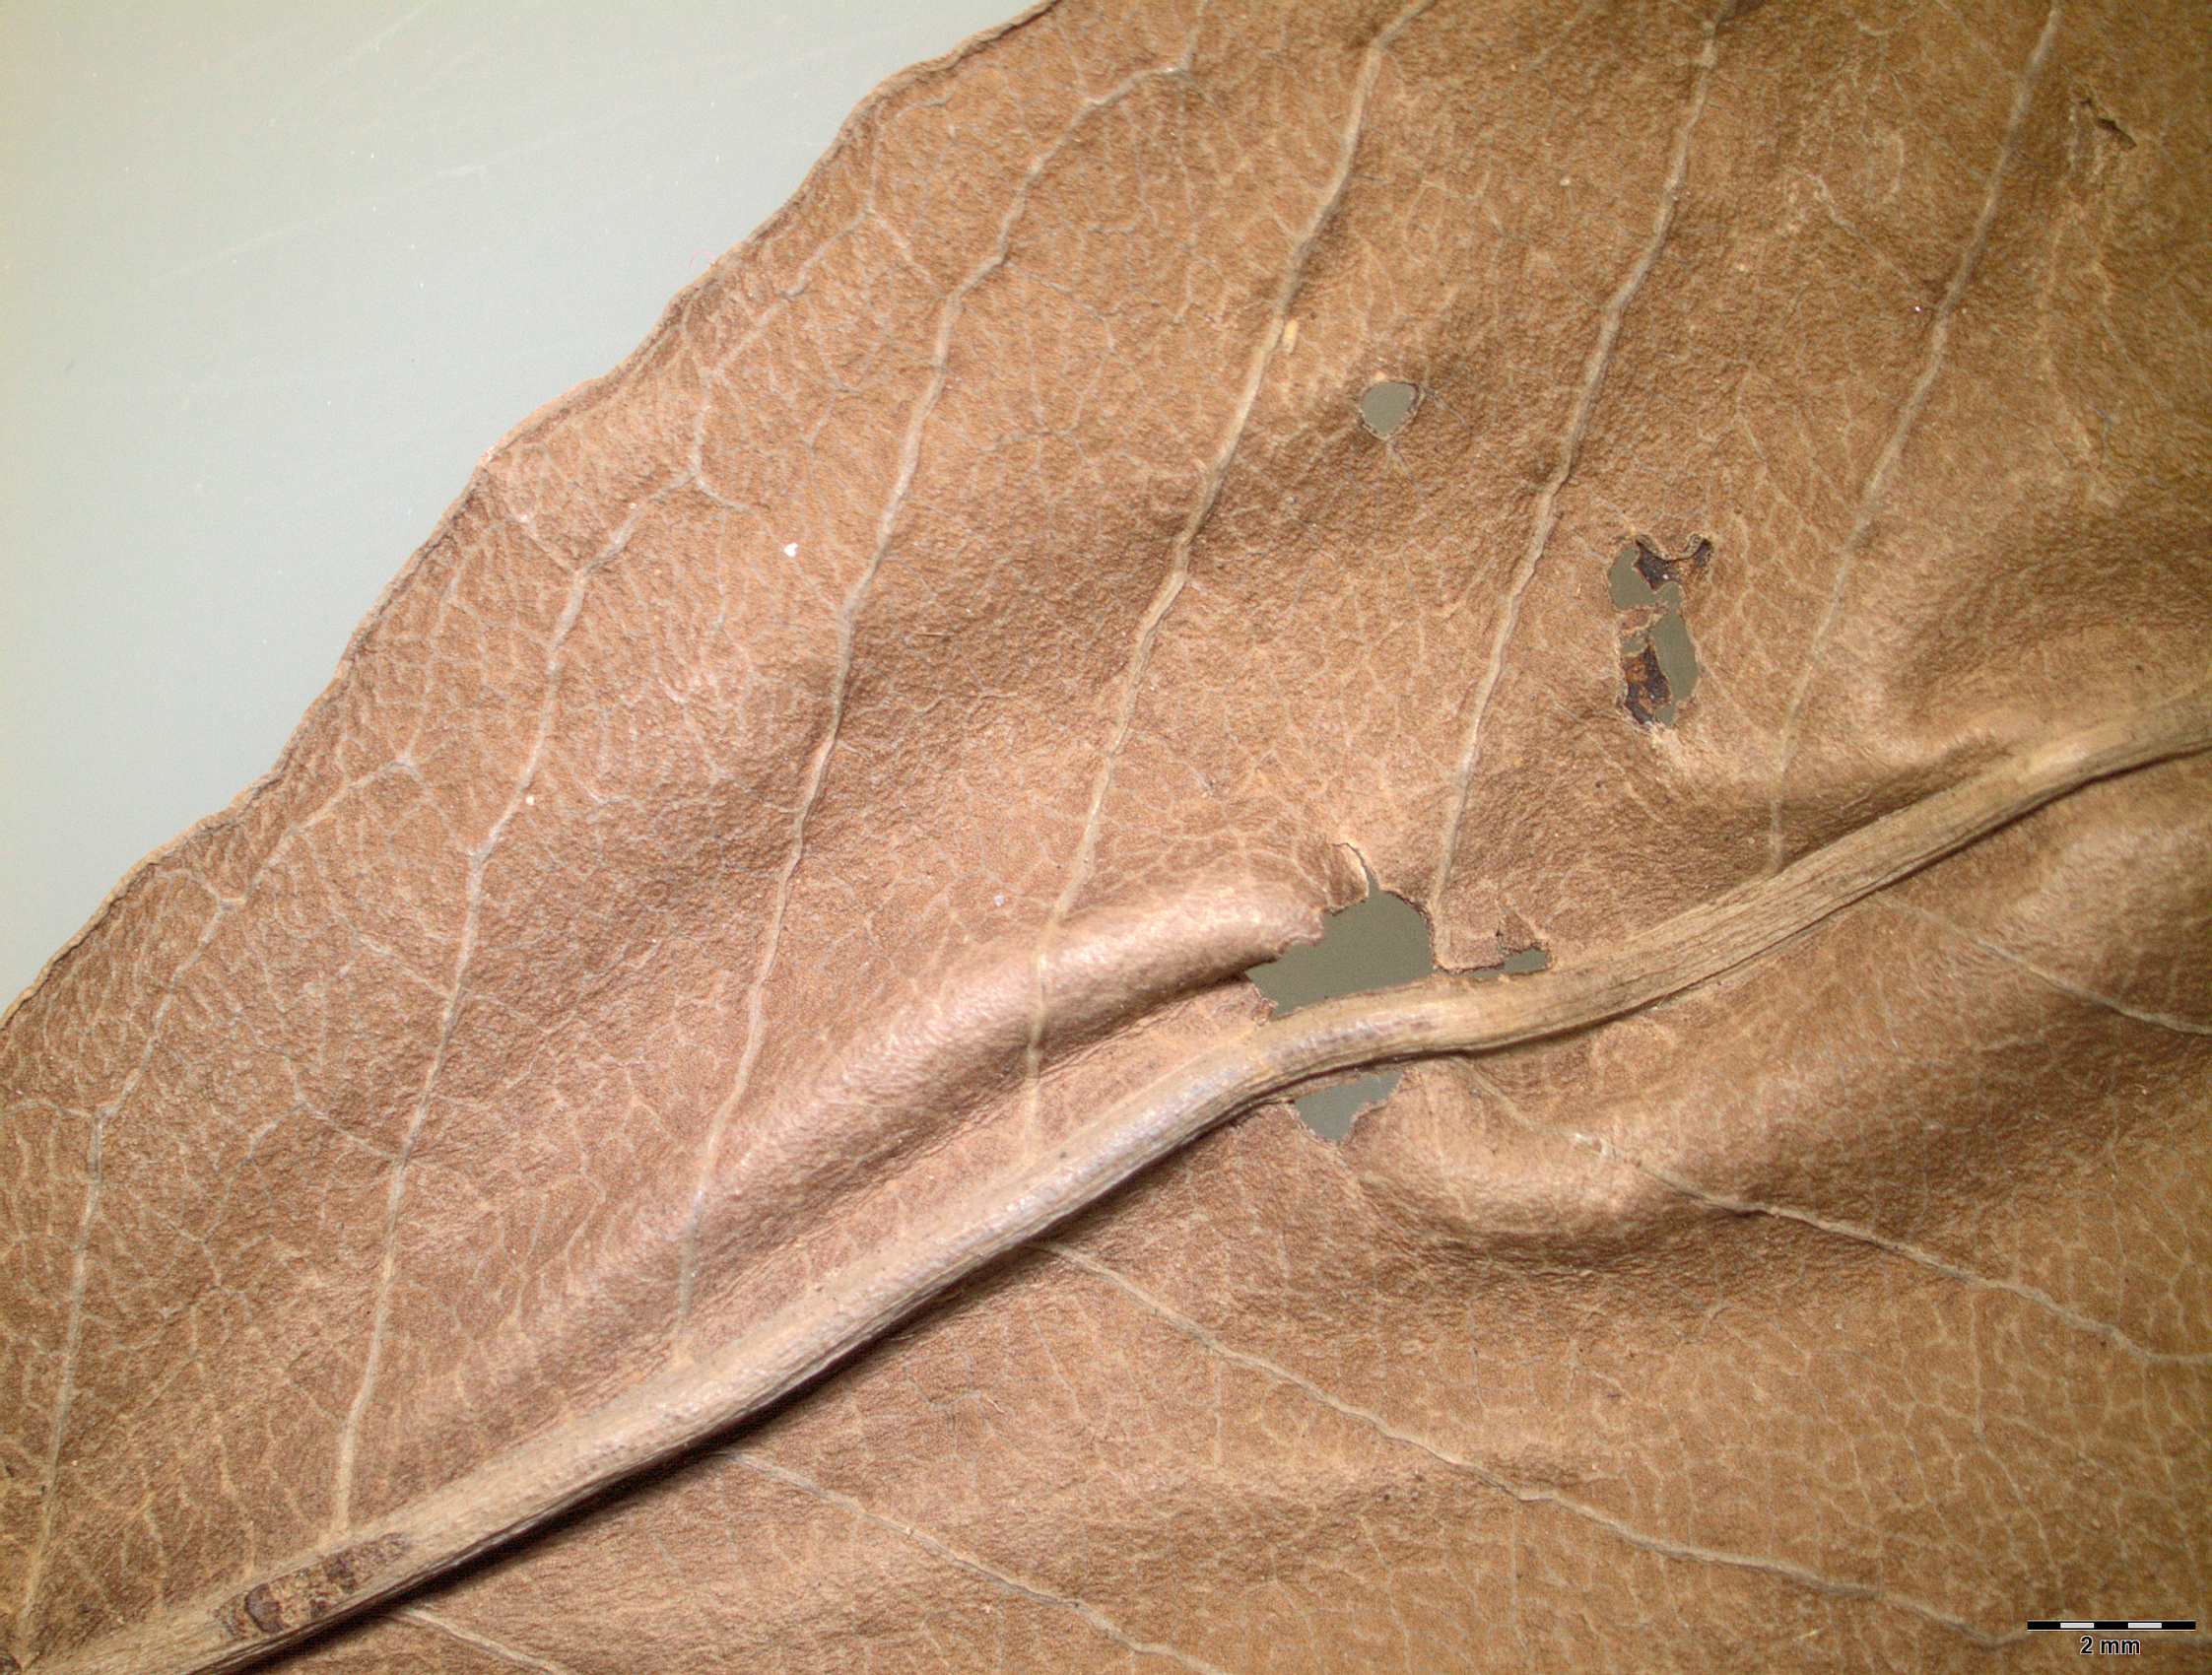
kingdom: Plantae
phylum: Tracheophyta
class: Magnoliopsida
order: Myrtales
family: Combretaceae
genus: Terminalia
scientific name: Terminalia elliptica
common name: Indian-laurel
